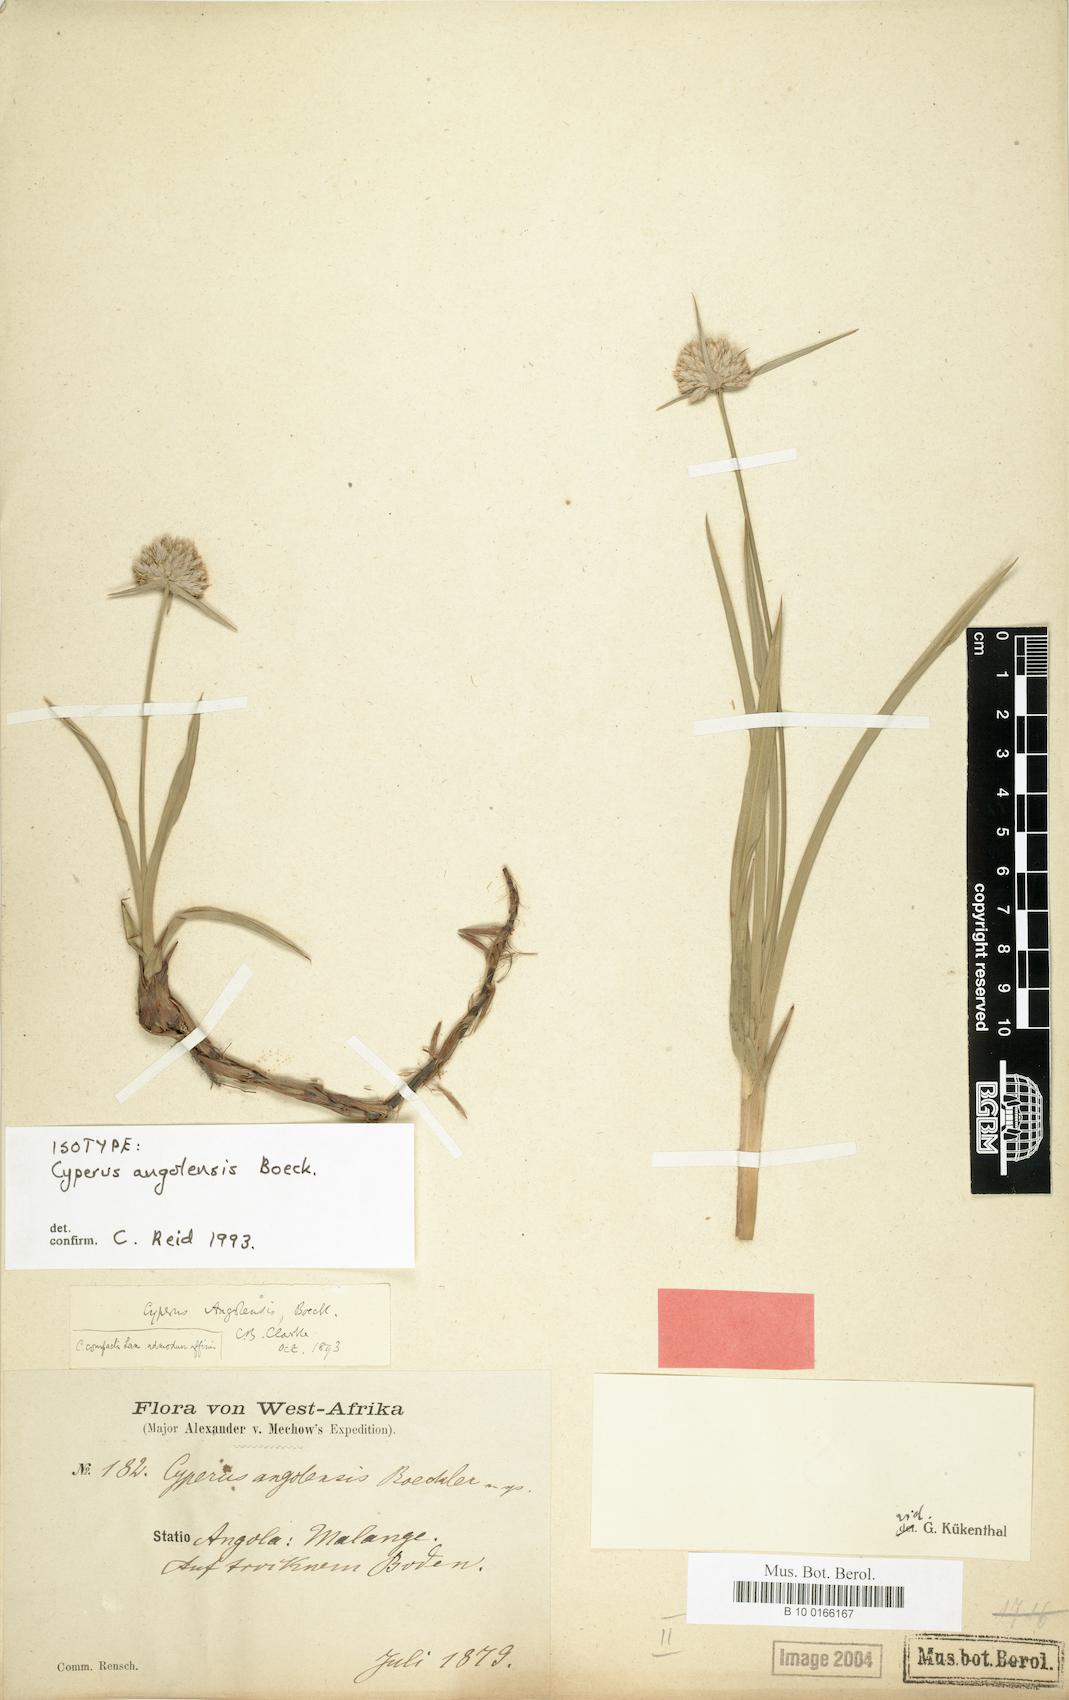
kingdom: Plantae
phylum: Tracheophyta
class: Liliopsida
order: Poales
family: Cyperaceae
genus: Cyperus
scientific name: Cyperus angolensis
